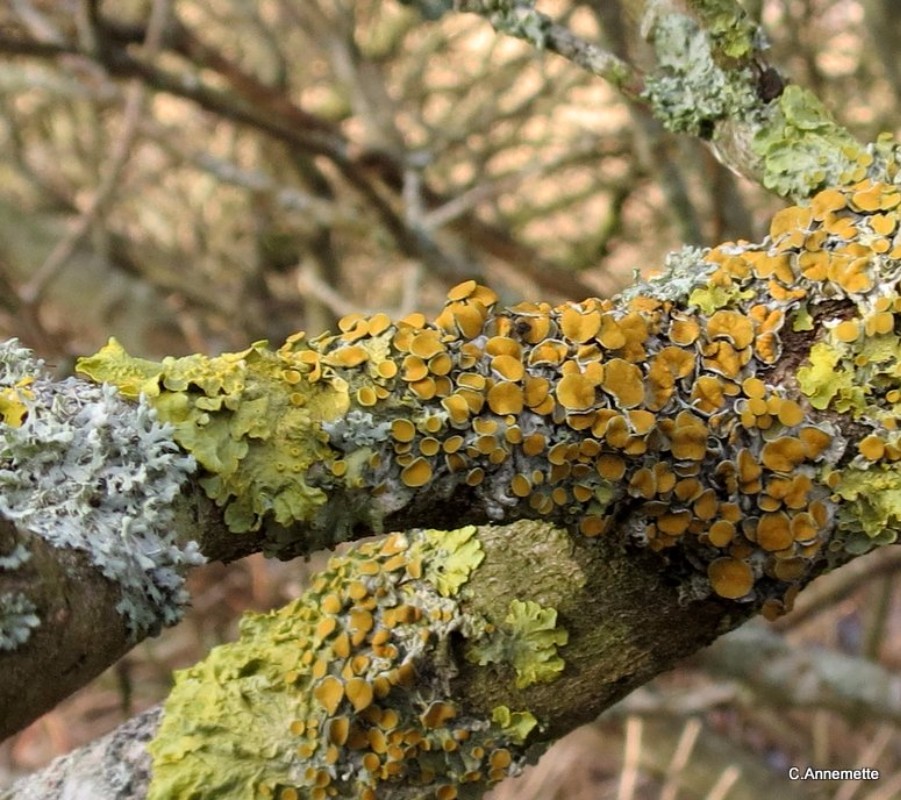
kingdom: Fungi
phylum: Ascomycota
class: Lecanoromycetes
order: Teloschistales
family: Teloschistaceae
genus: Xanthoria
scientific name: Xanthoria parietina
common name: almindelig væggelav
